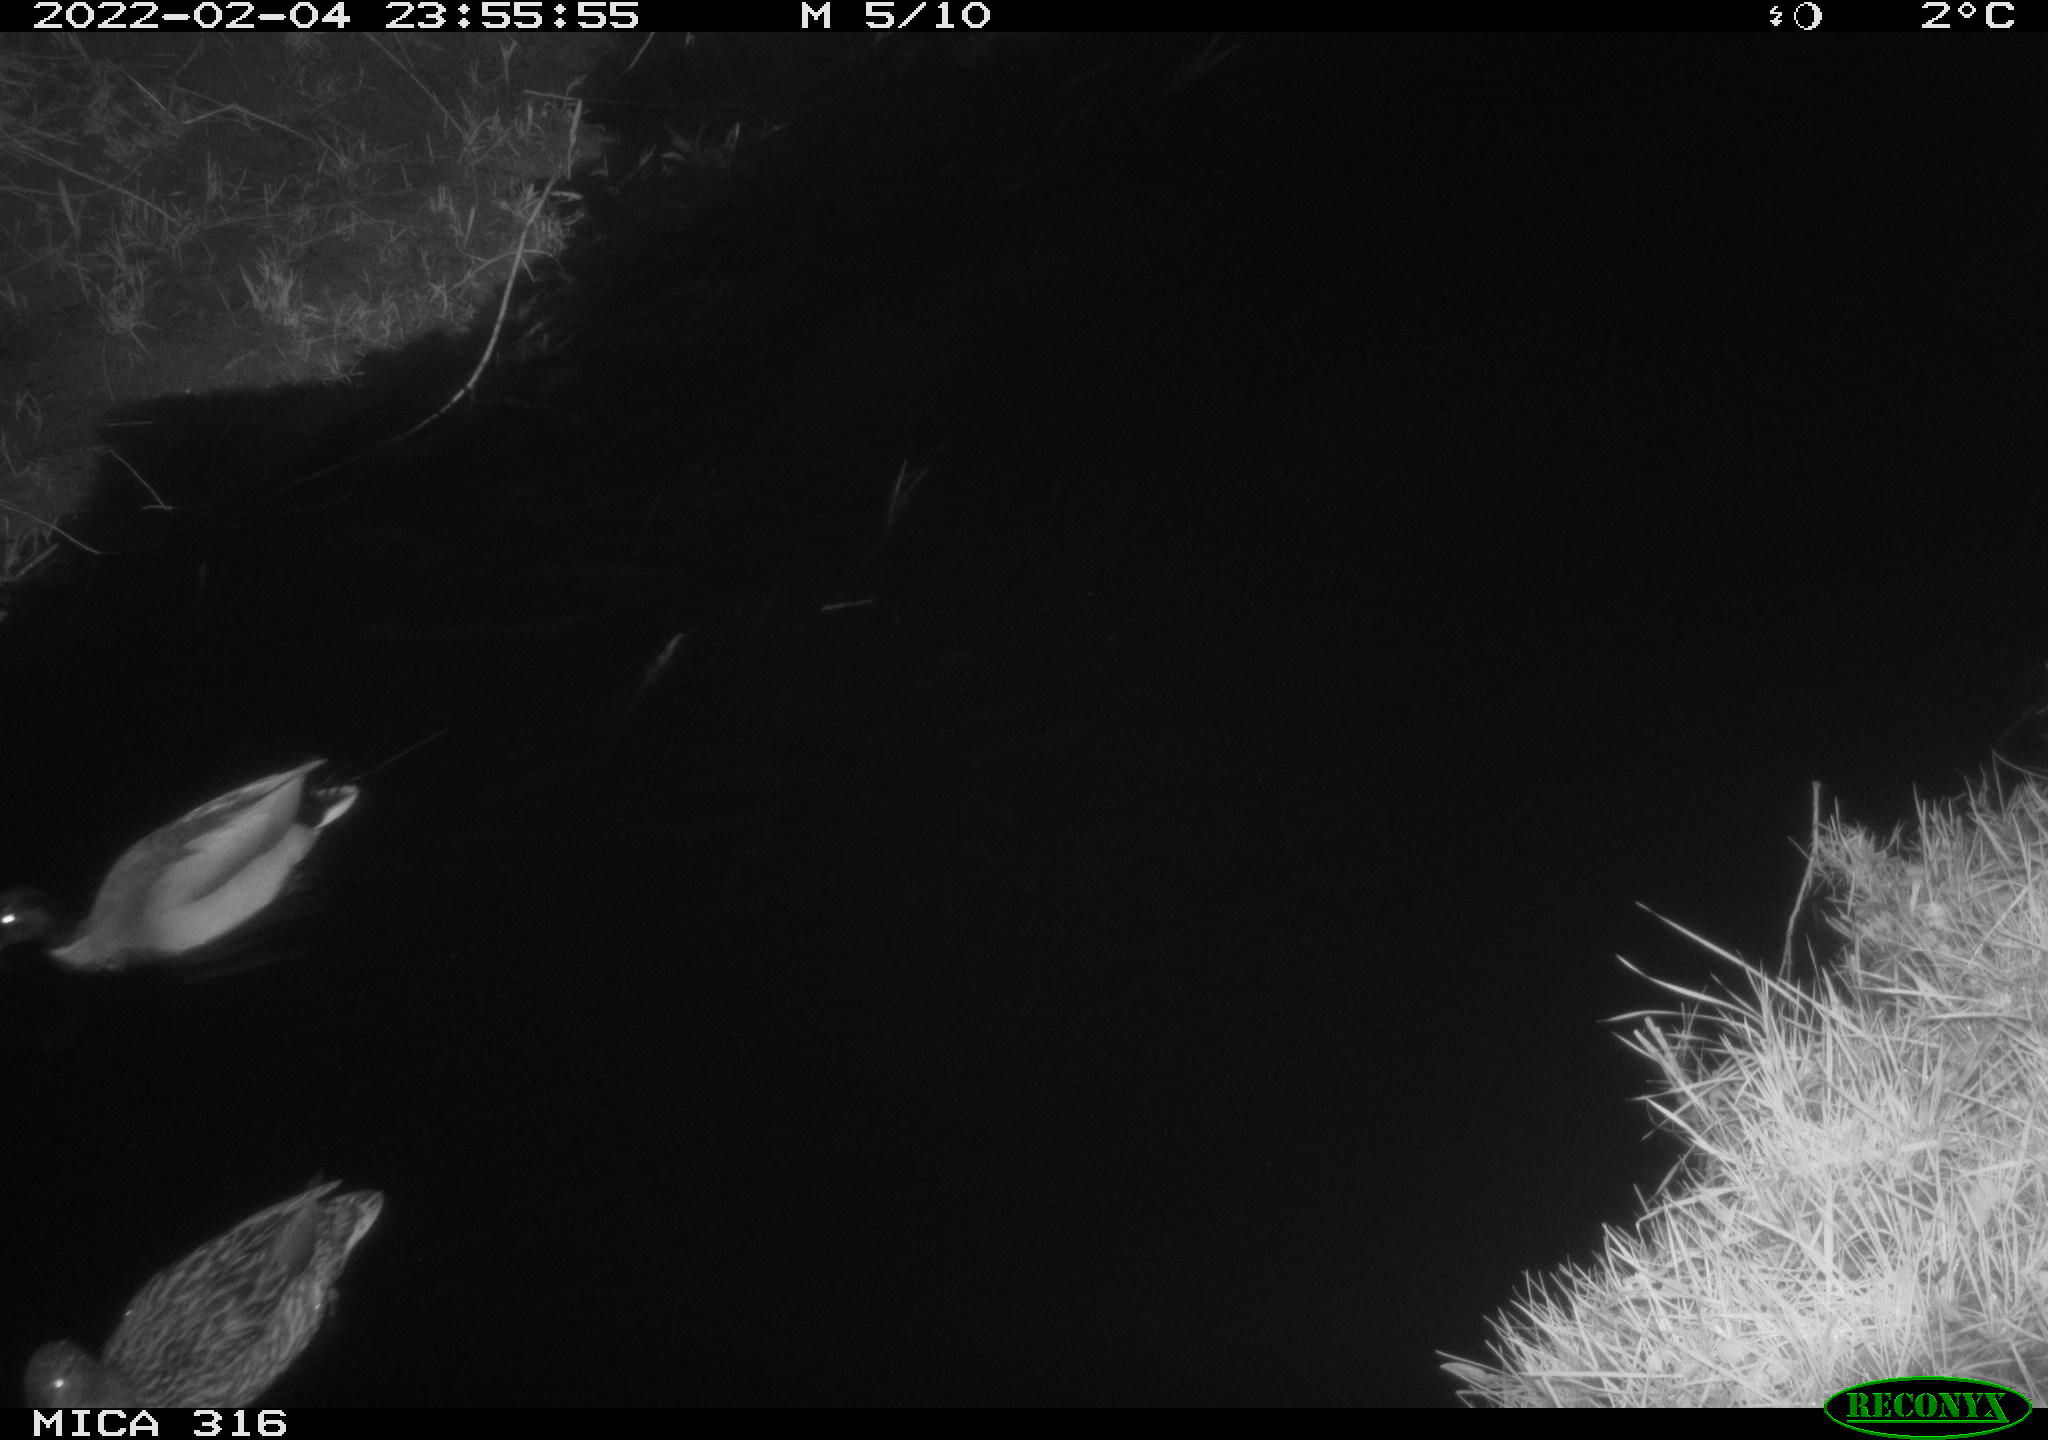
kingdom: Animalia
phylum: Chordata
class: Aves
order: Anseriformes
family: Anatidae
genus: Anas
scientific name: Anas platyrhynchos
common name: Mallard
